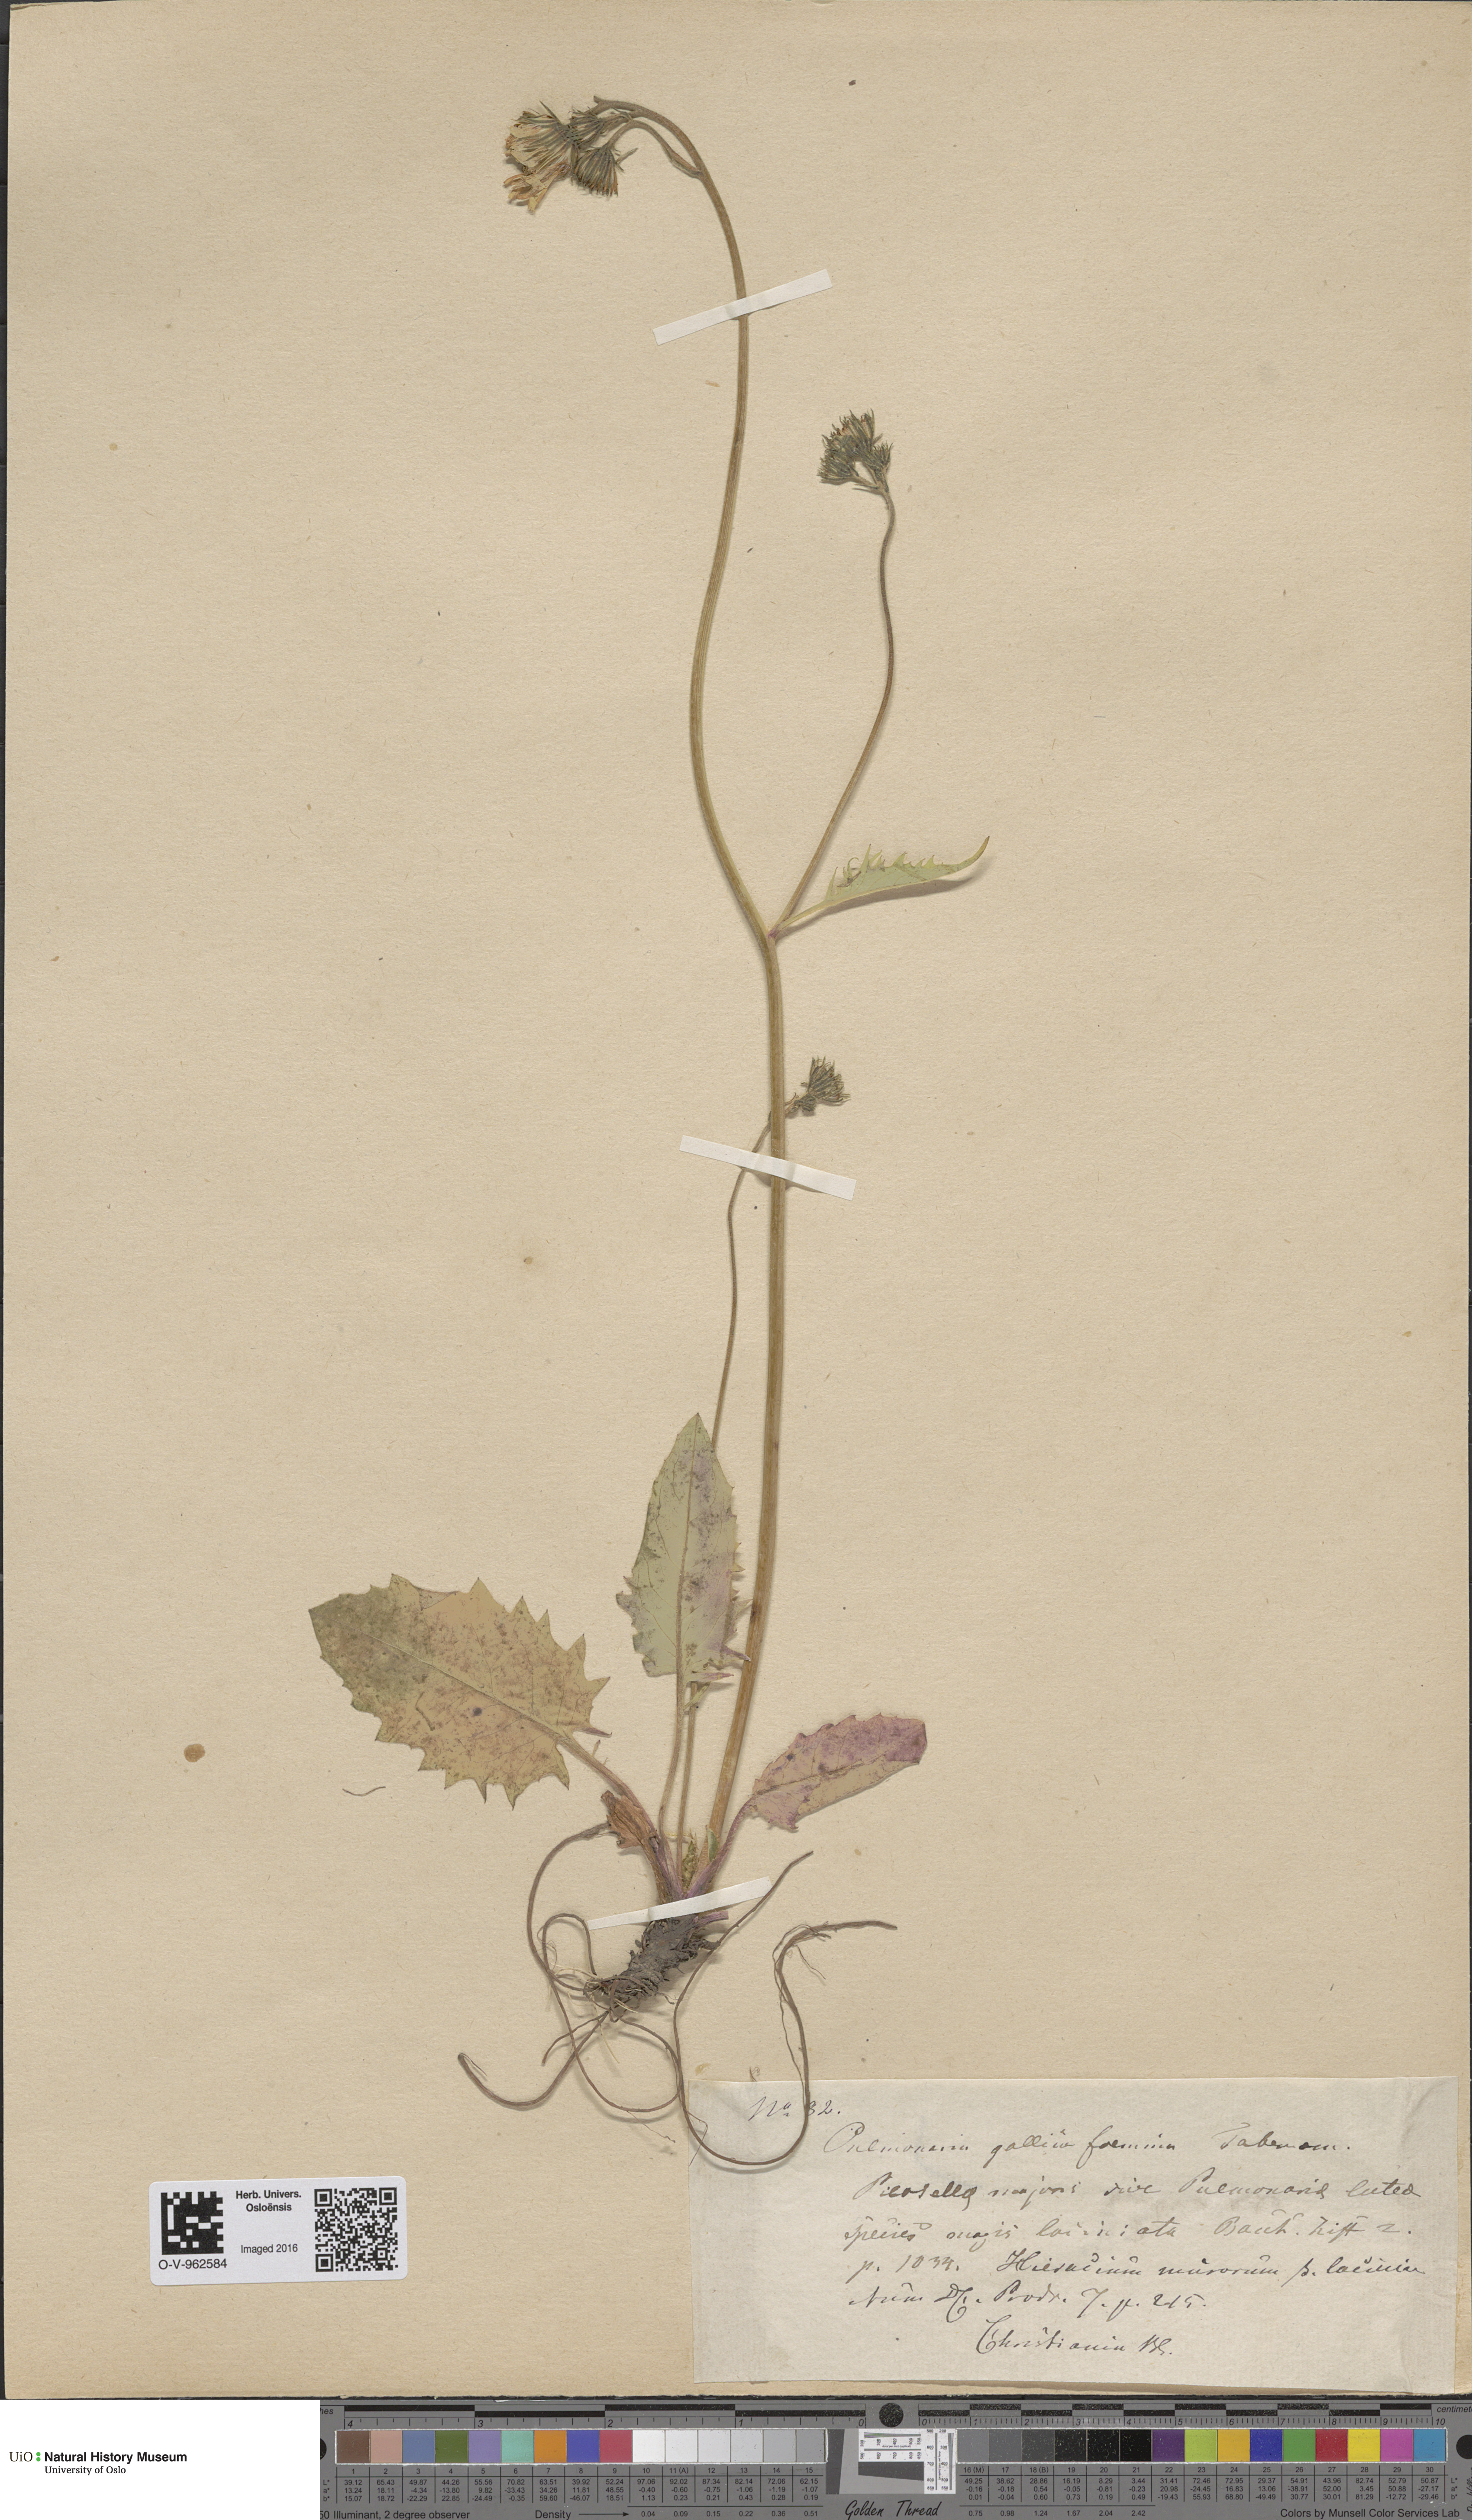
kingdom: Plantae
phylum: Tracheophyta
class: Magnoliopsida
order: Asterales
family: Asteraceae
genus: Hieracium
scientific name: Hieracium murorum
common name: Wall hawkweed
